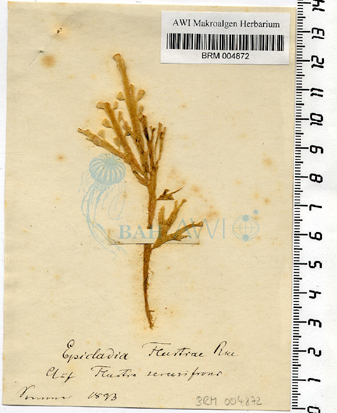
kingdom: Plantae
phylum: Chlorophyta
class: Ulvophyceae
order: Ulvales
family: Ulvellaceae
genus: Epicladia
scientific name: Epicladia flustrae
